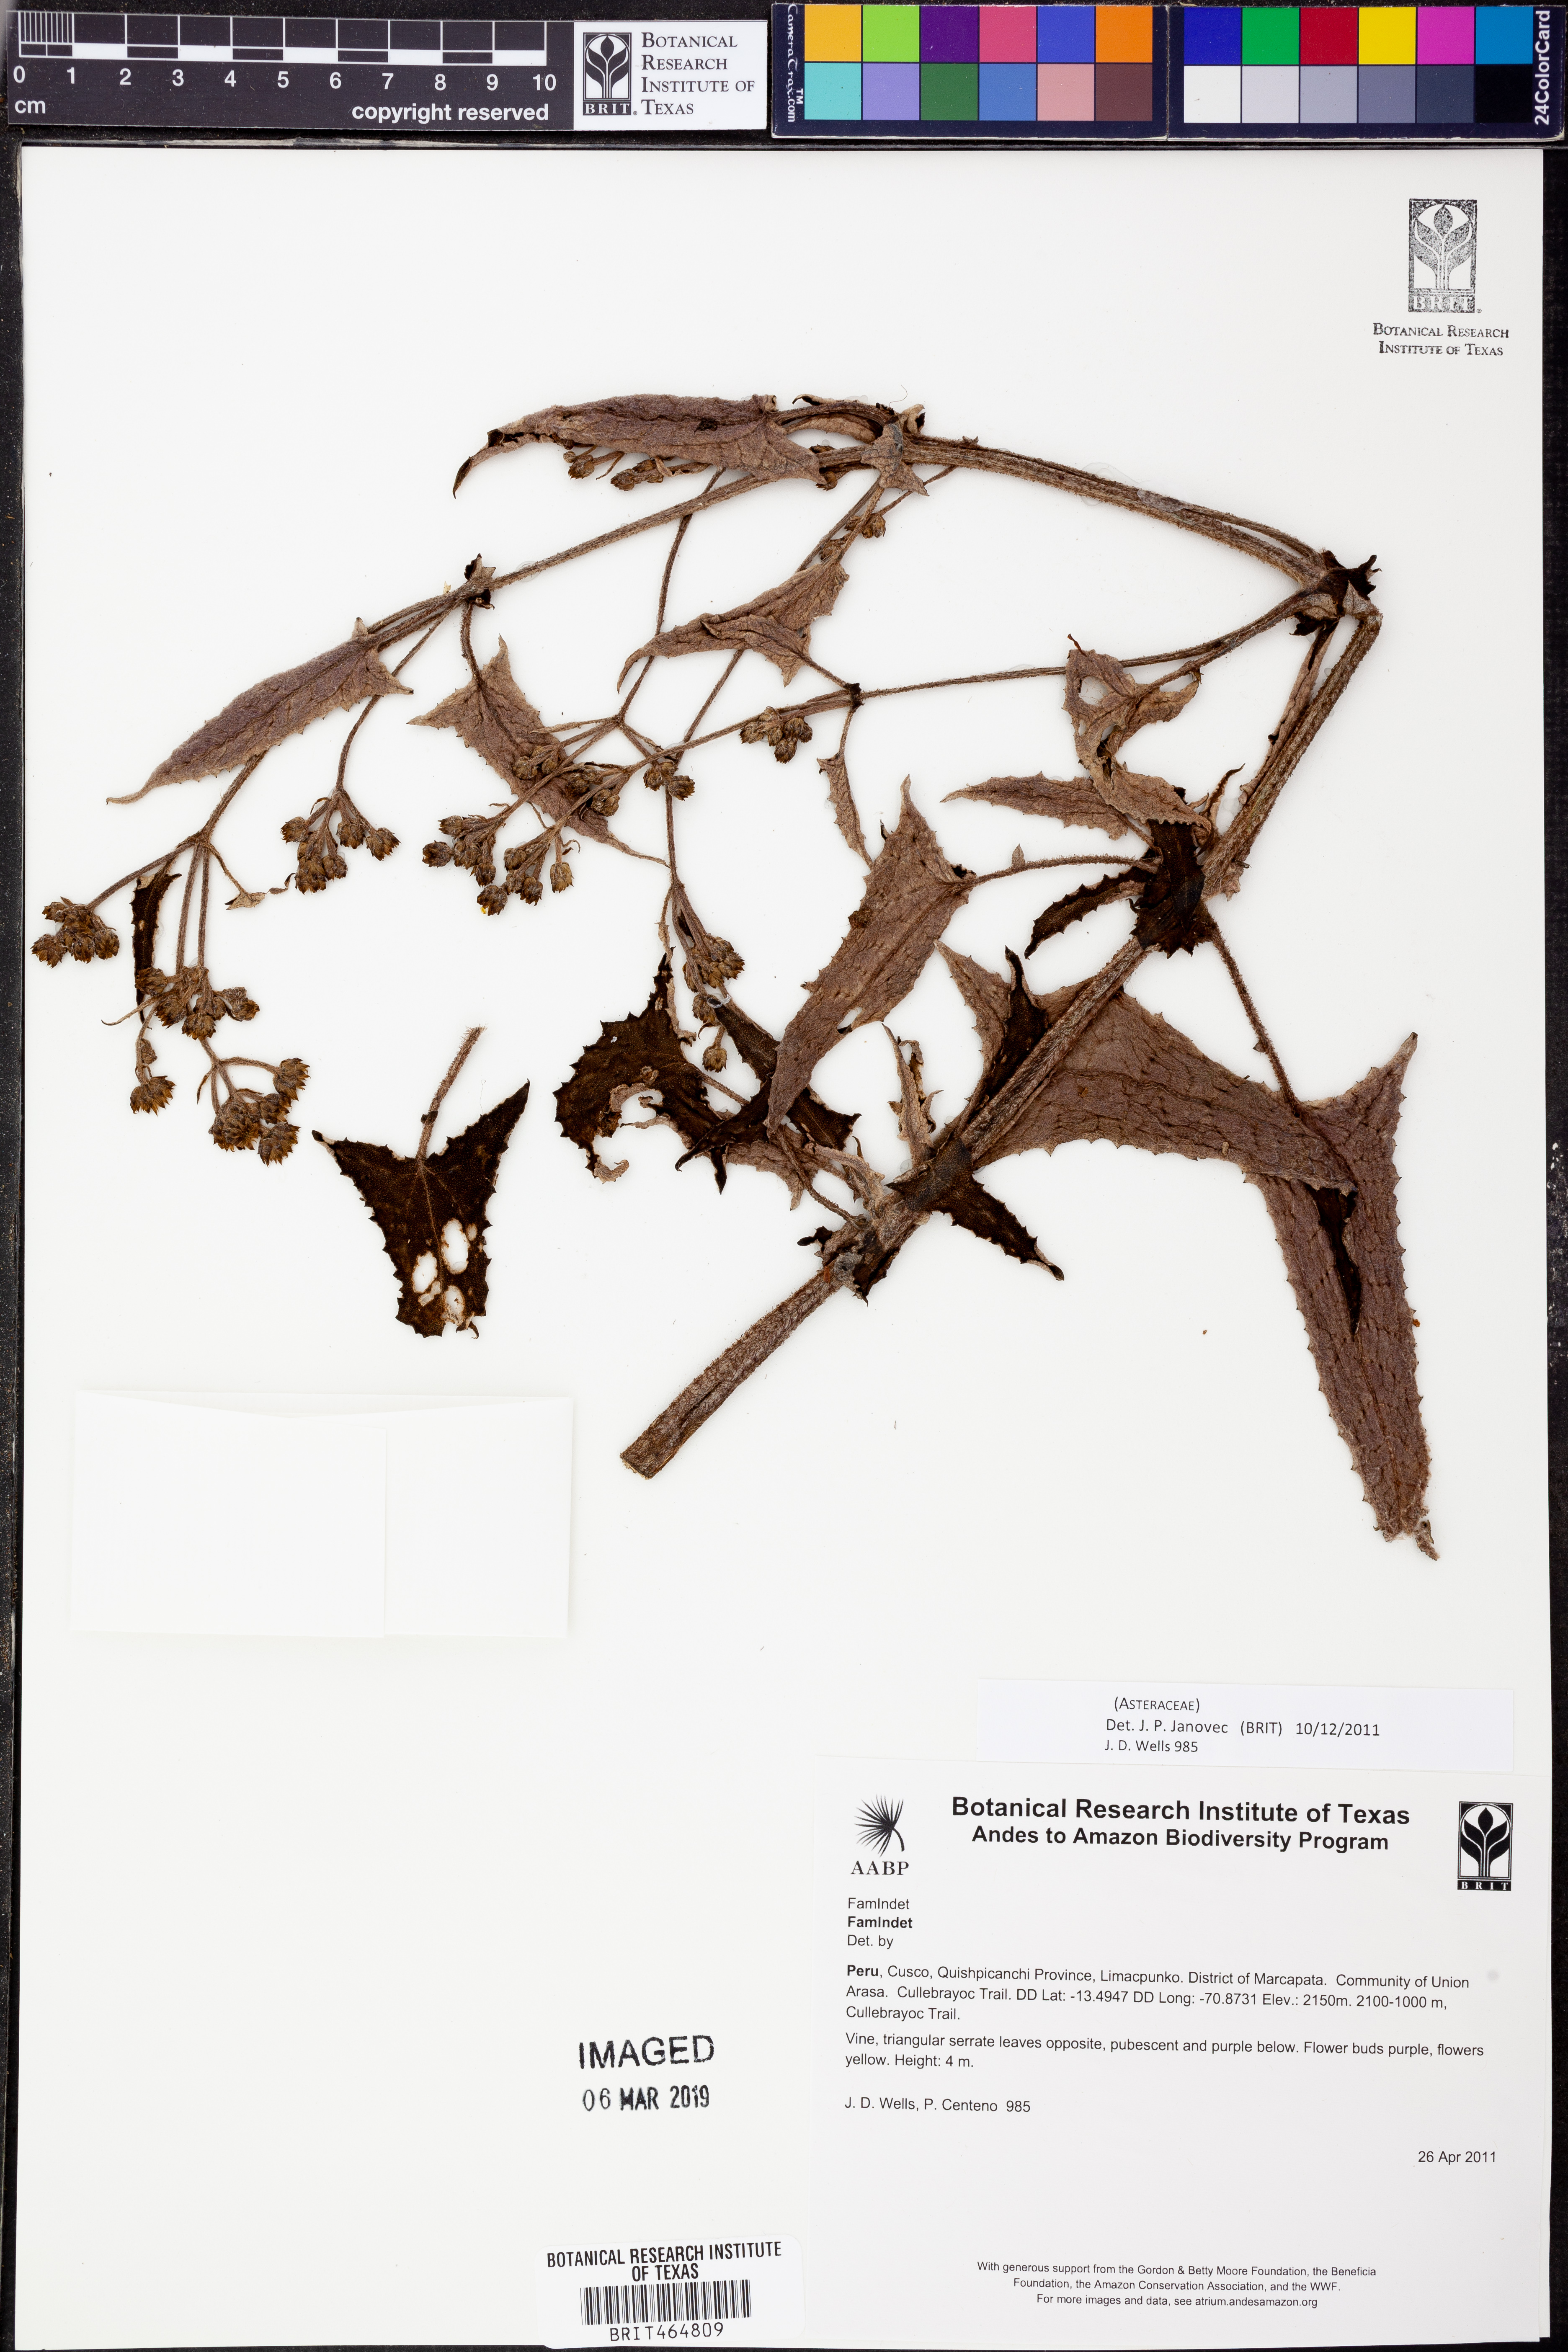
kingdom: Plantae
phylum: Tracheophyta
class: Magnoliopsida
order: Asterales
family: Asteraceae
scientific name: Asteraceae
